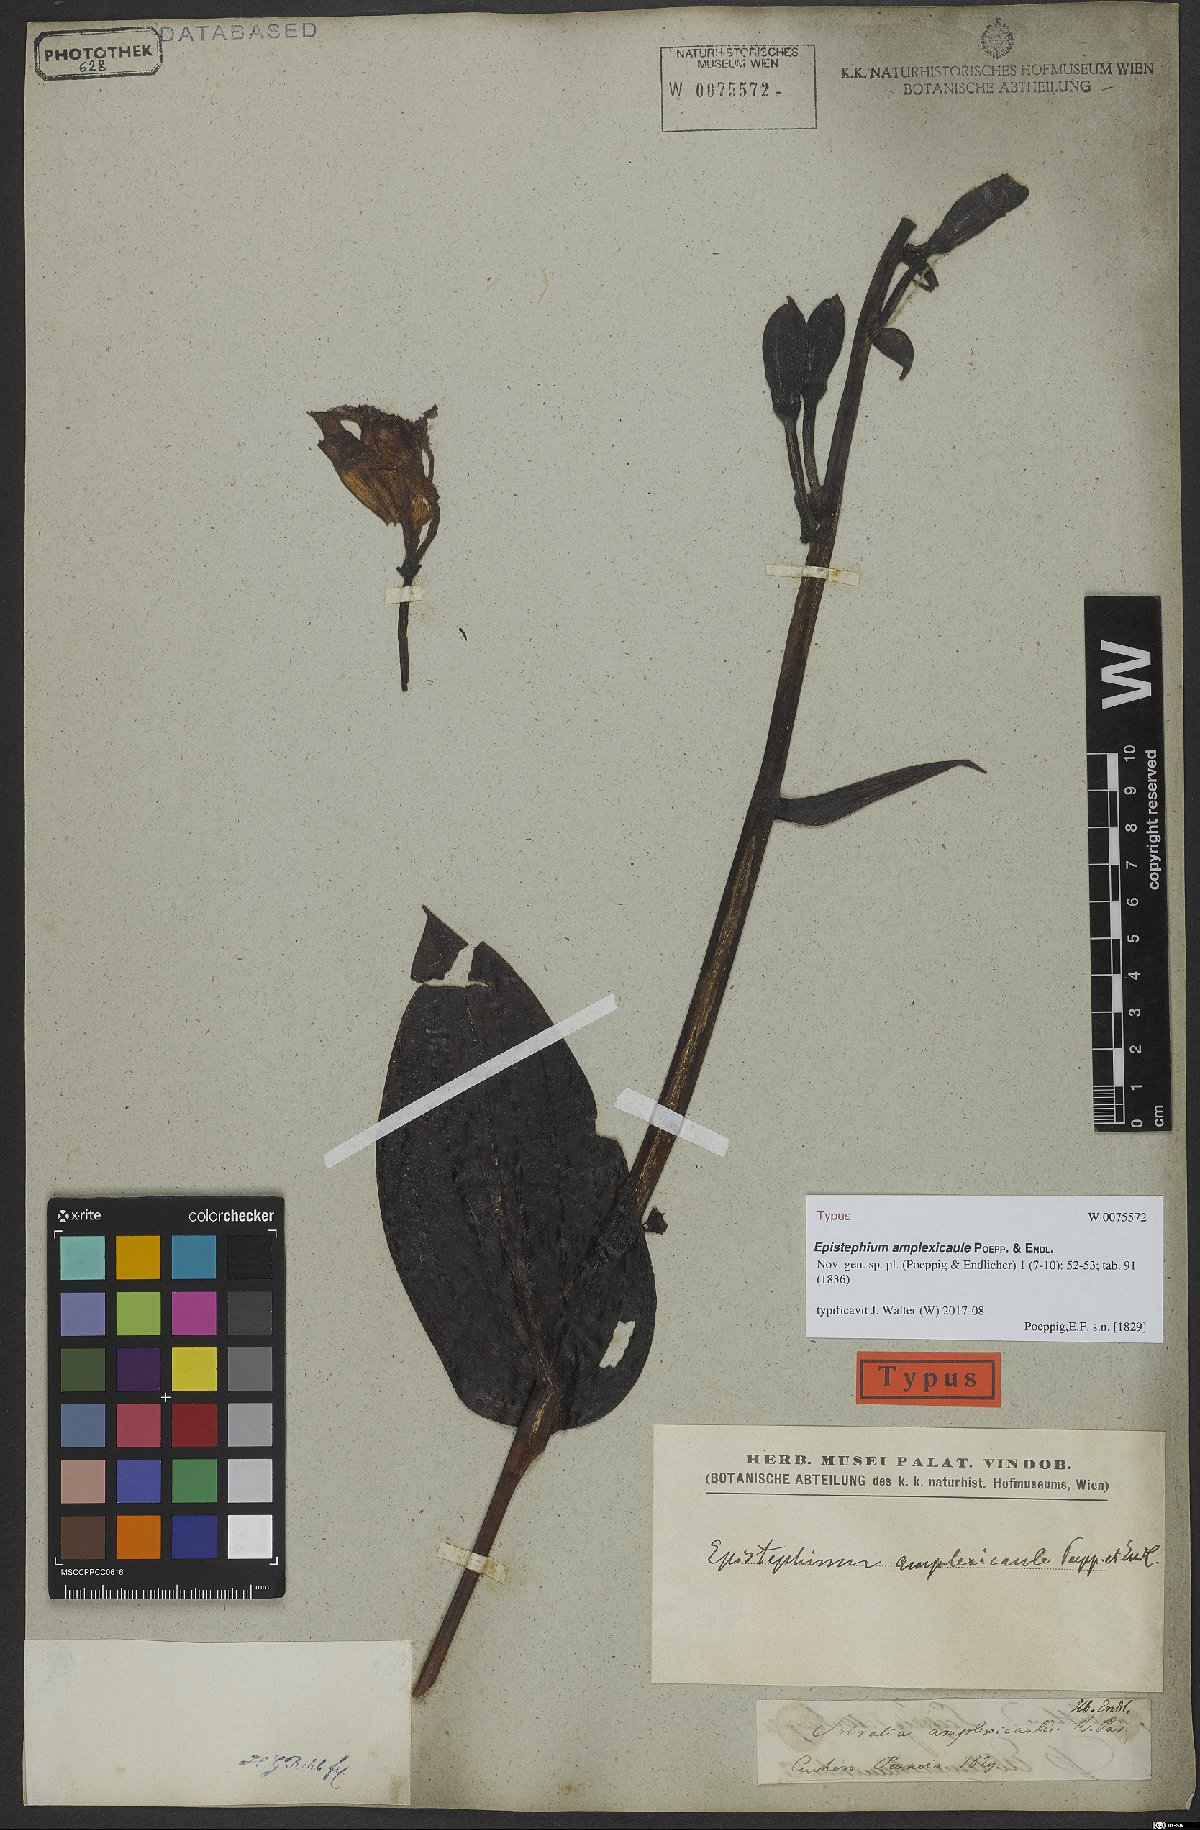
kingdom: Plantae
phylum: Tracheophyta
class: Liliopsida
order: Asparagales
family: Orchidaceae
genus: Epistephium
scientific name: Epistephium amplexicaule
